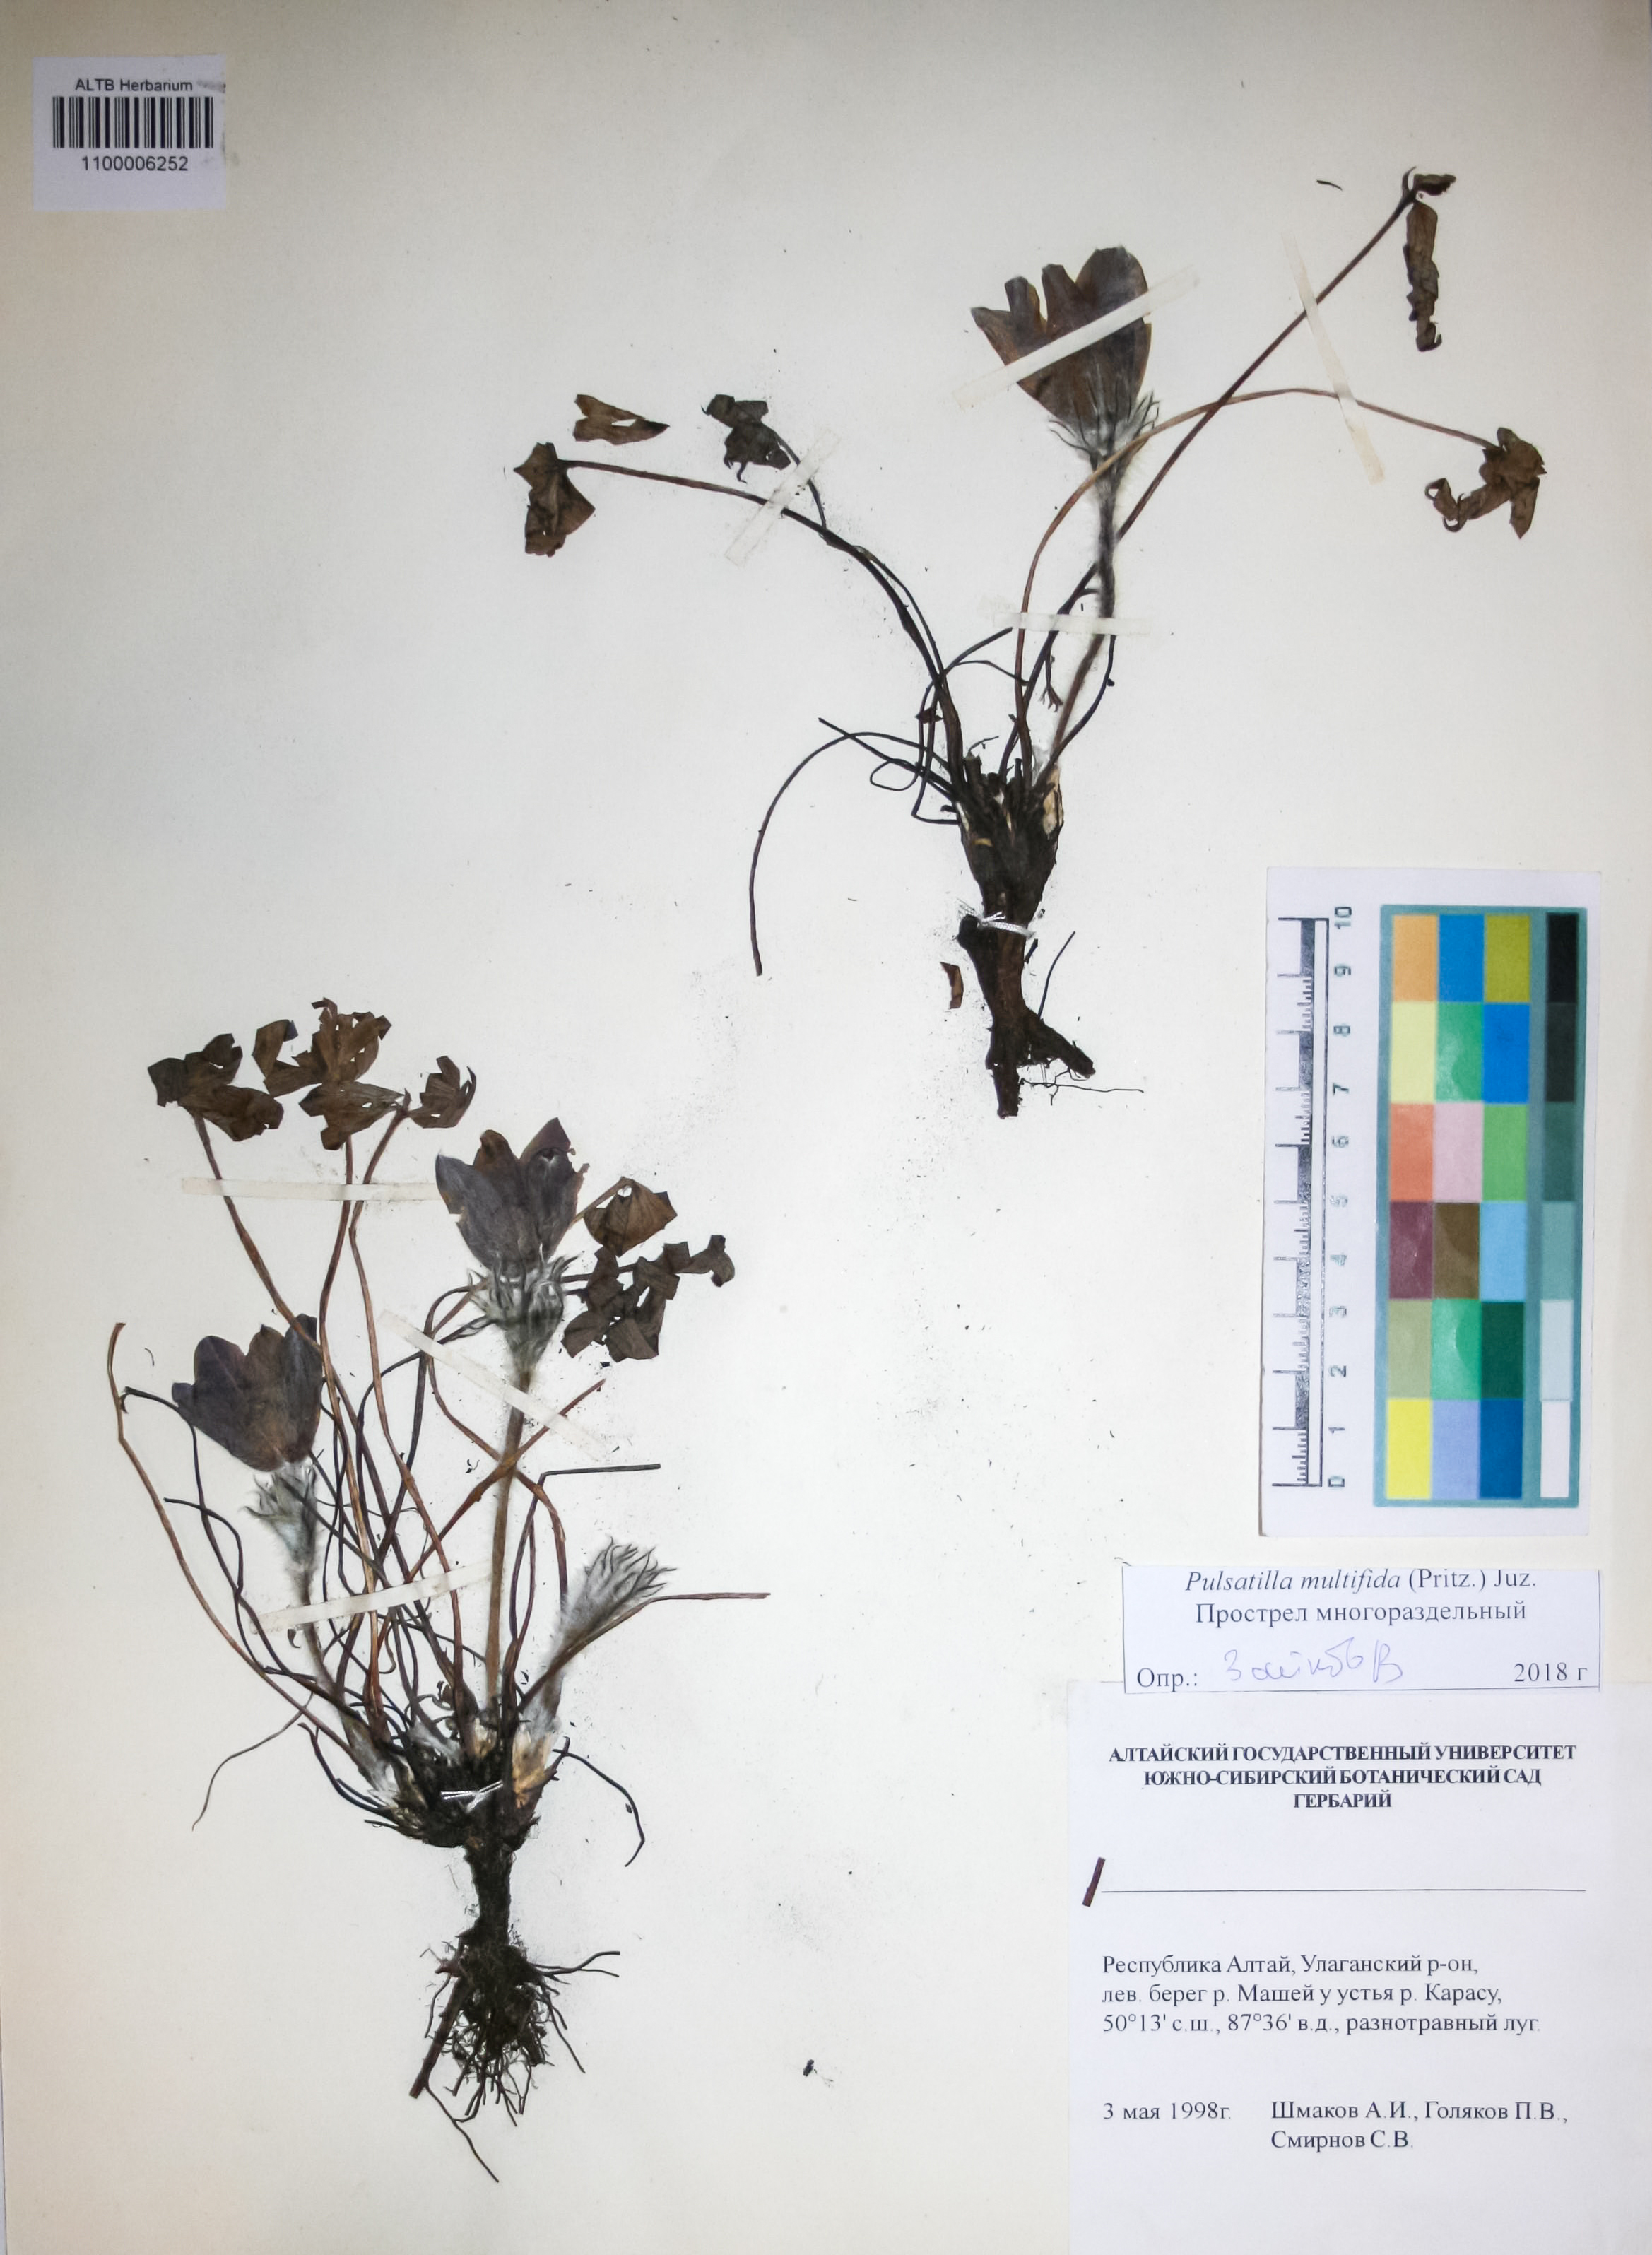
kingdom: Plantae
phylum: Tracheophyta
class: Magnoliopsida
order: Ranunculales
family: Ranunculaceae
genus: Pulsatilla
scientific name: Pulsatilla patens
